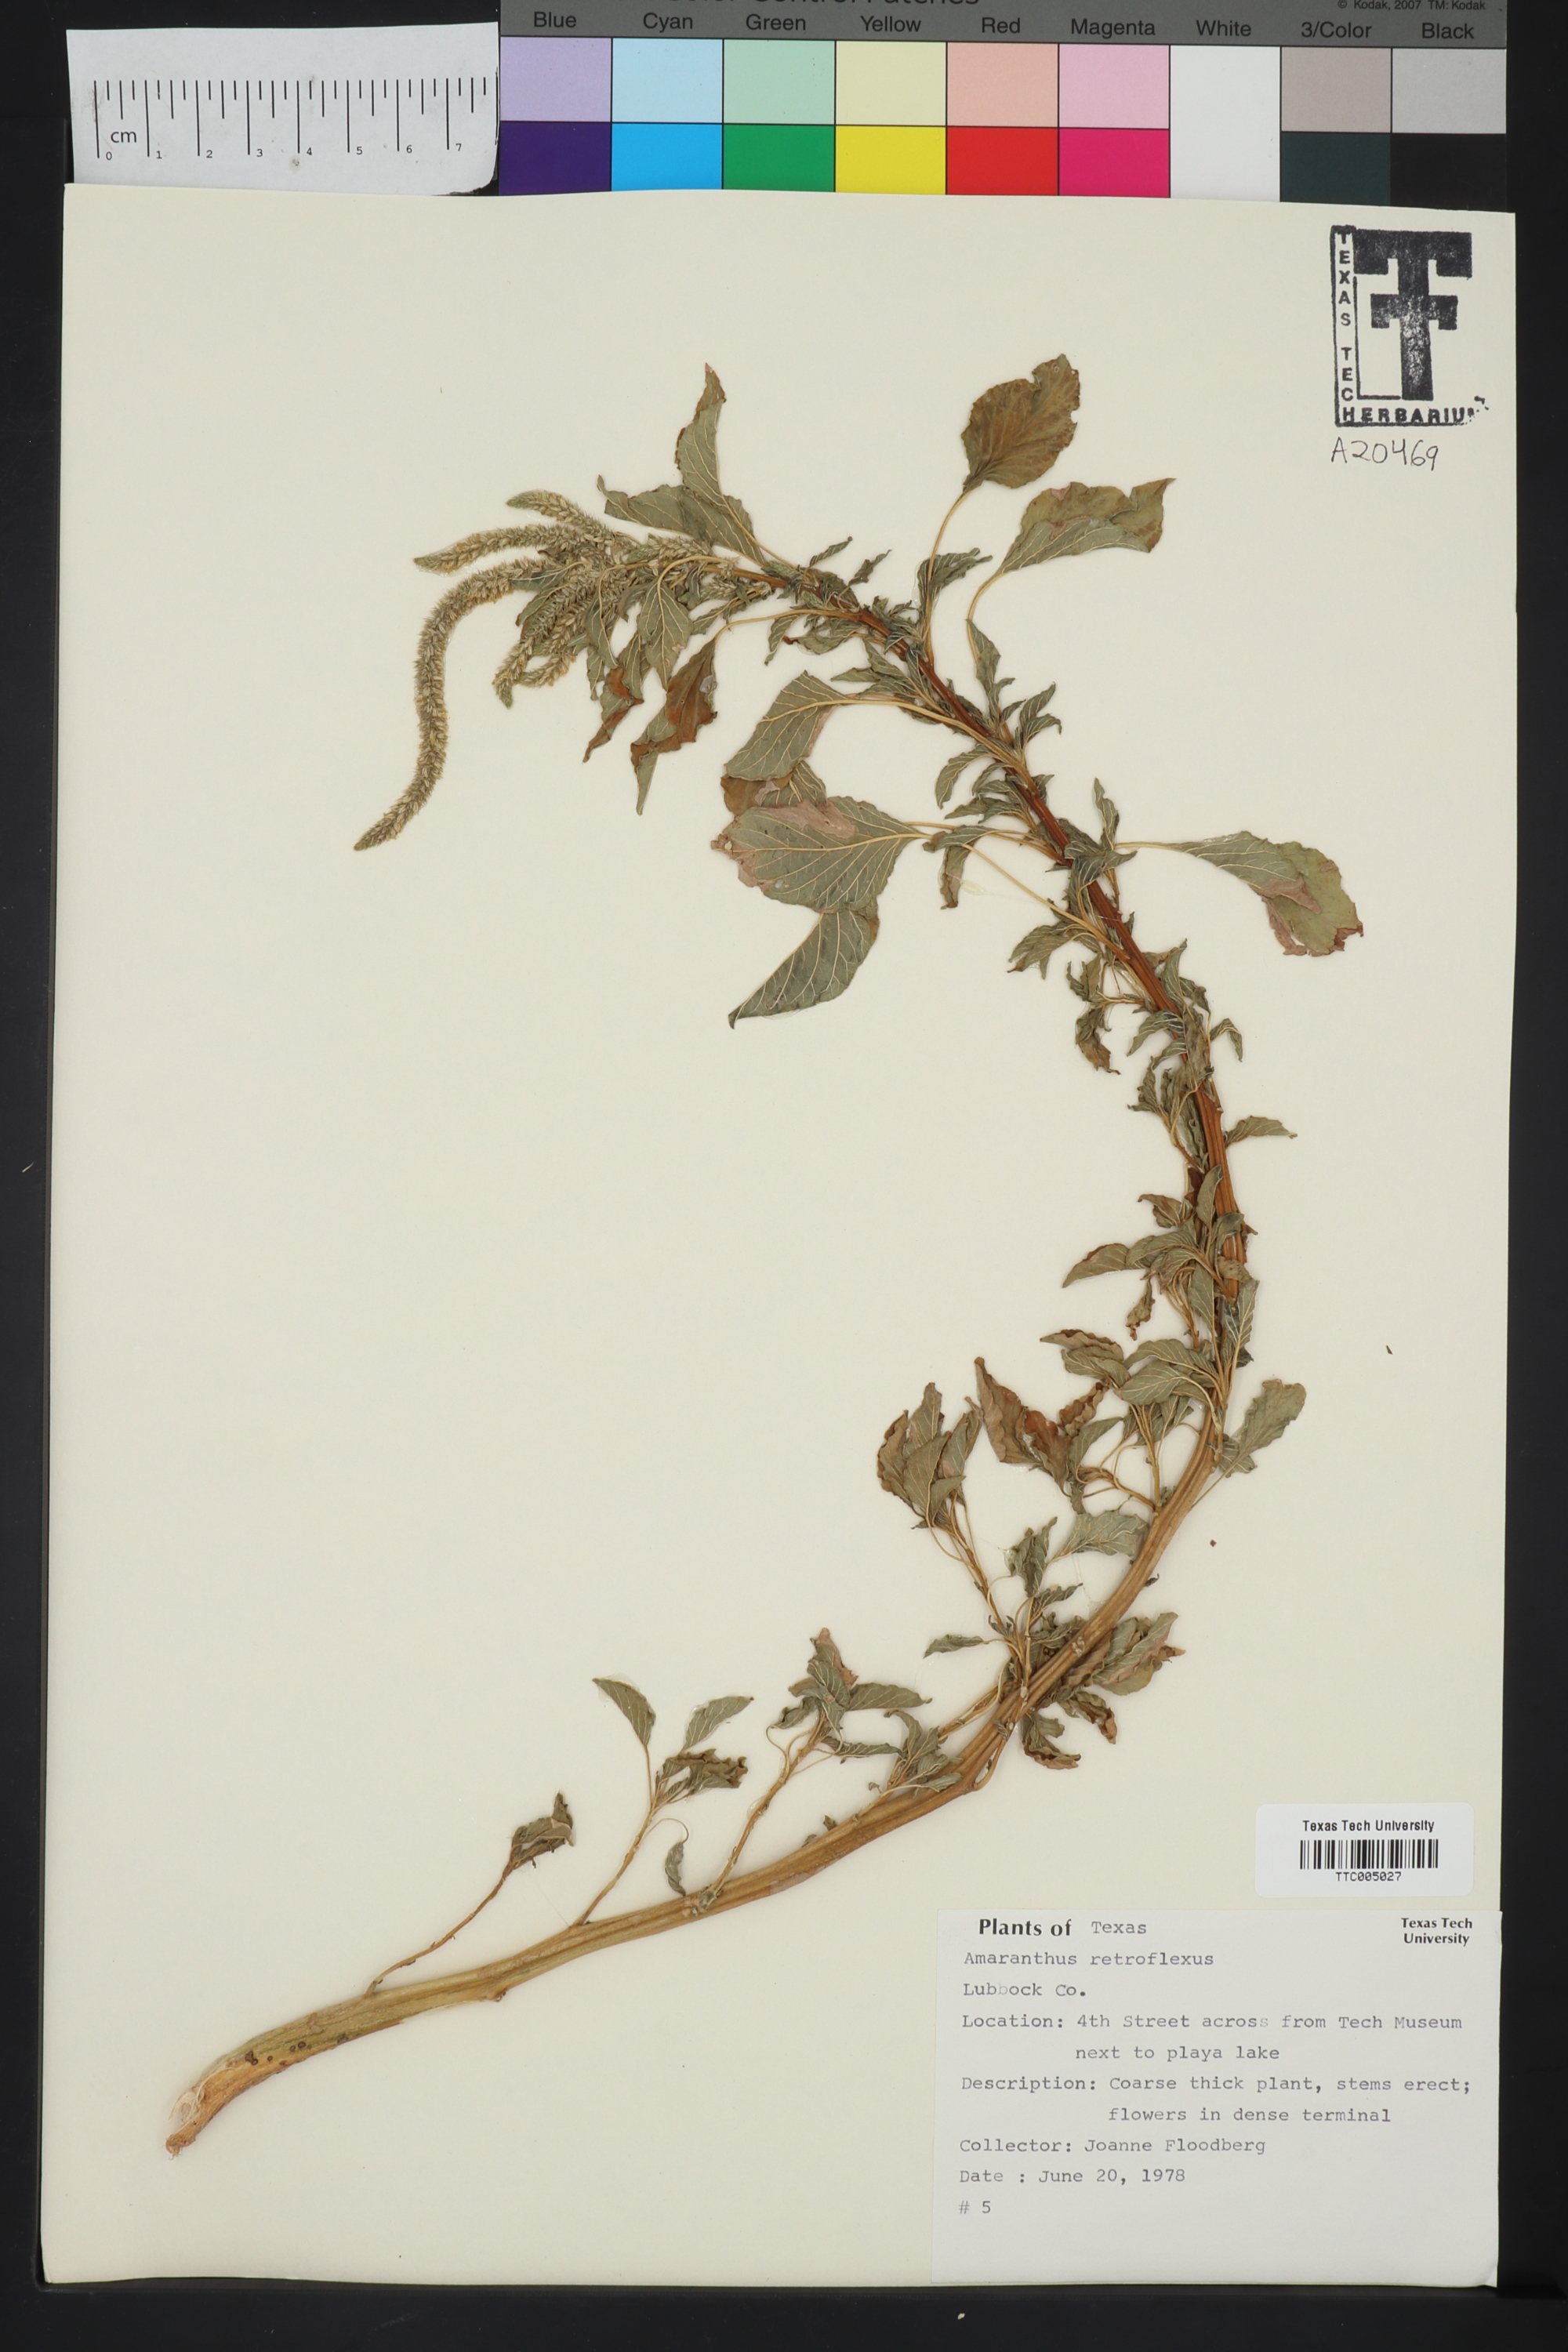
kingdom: Plantae
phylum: Tracheophyta
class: Magnoliopsida
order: Caryophyllales
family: Amaranthaceae
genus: Amaranthus
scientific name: Amaranthus retroflexus
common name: Redroot amaranth
